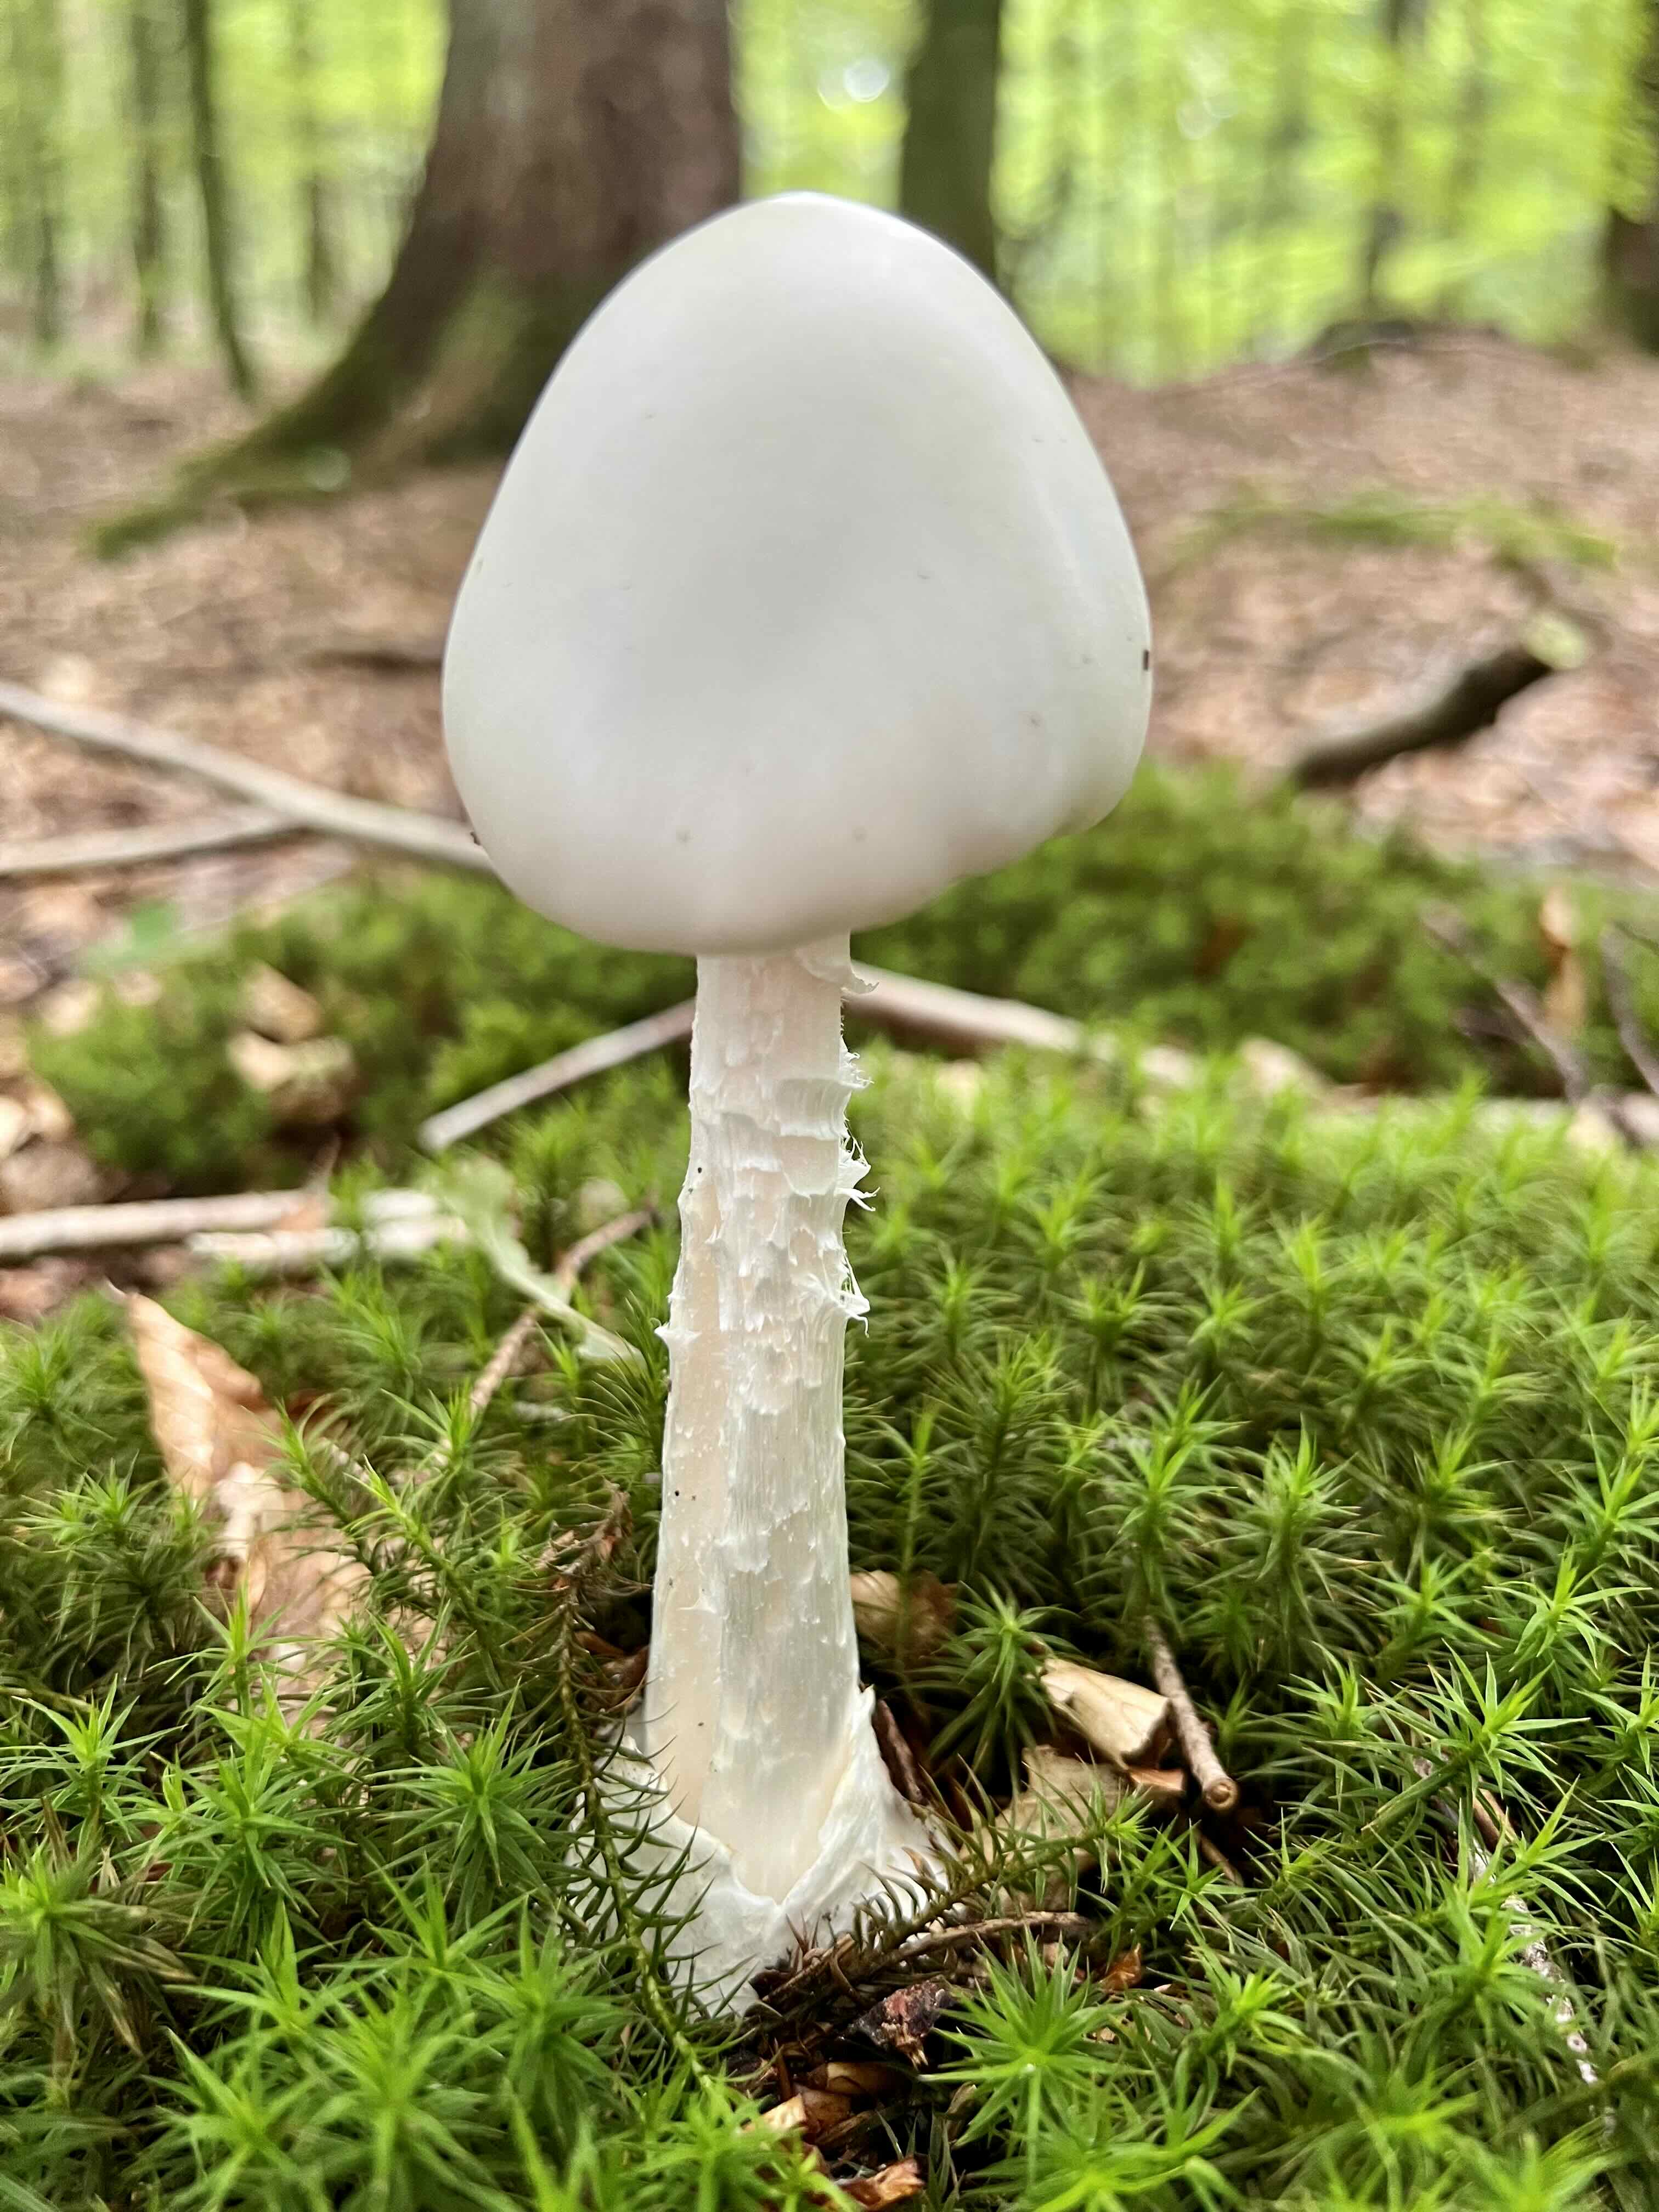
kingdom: Fungi
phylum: Basidiomycota
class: Agaricomycetes
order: Agaricales
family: Amanitaceae
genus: Amanita
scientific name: Amanita virosa
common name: snehvid fluesvamp
